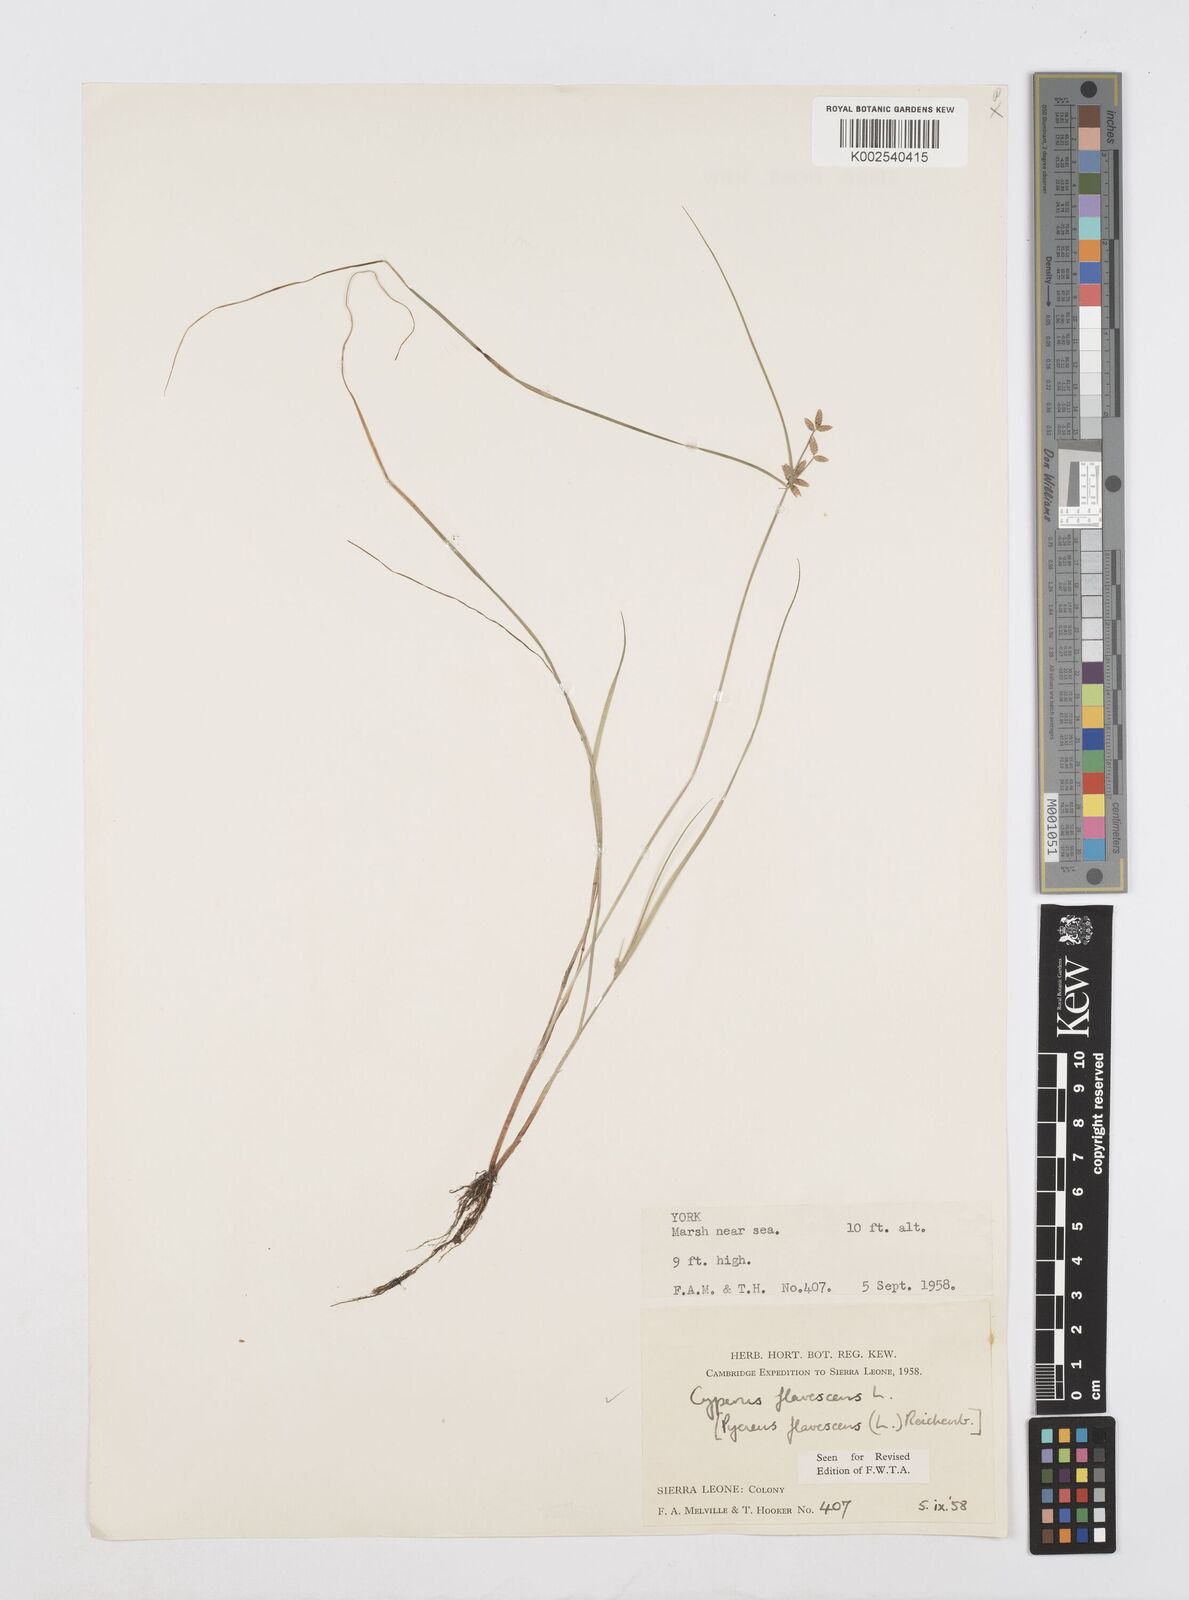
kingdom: Plantae
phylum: Tracheophyta
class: Liliopsida
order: Poales
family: Cyperaceae
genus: Cyperus
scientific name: Cyperus flavescens
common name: Yellow galingale
